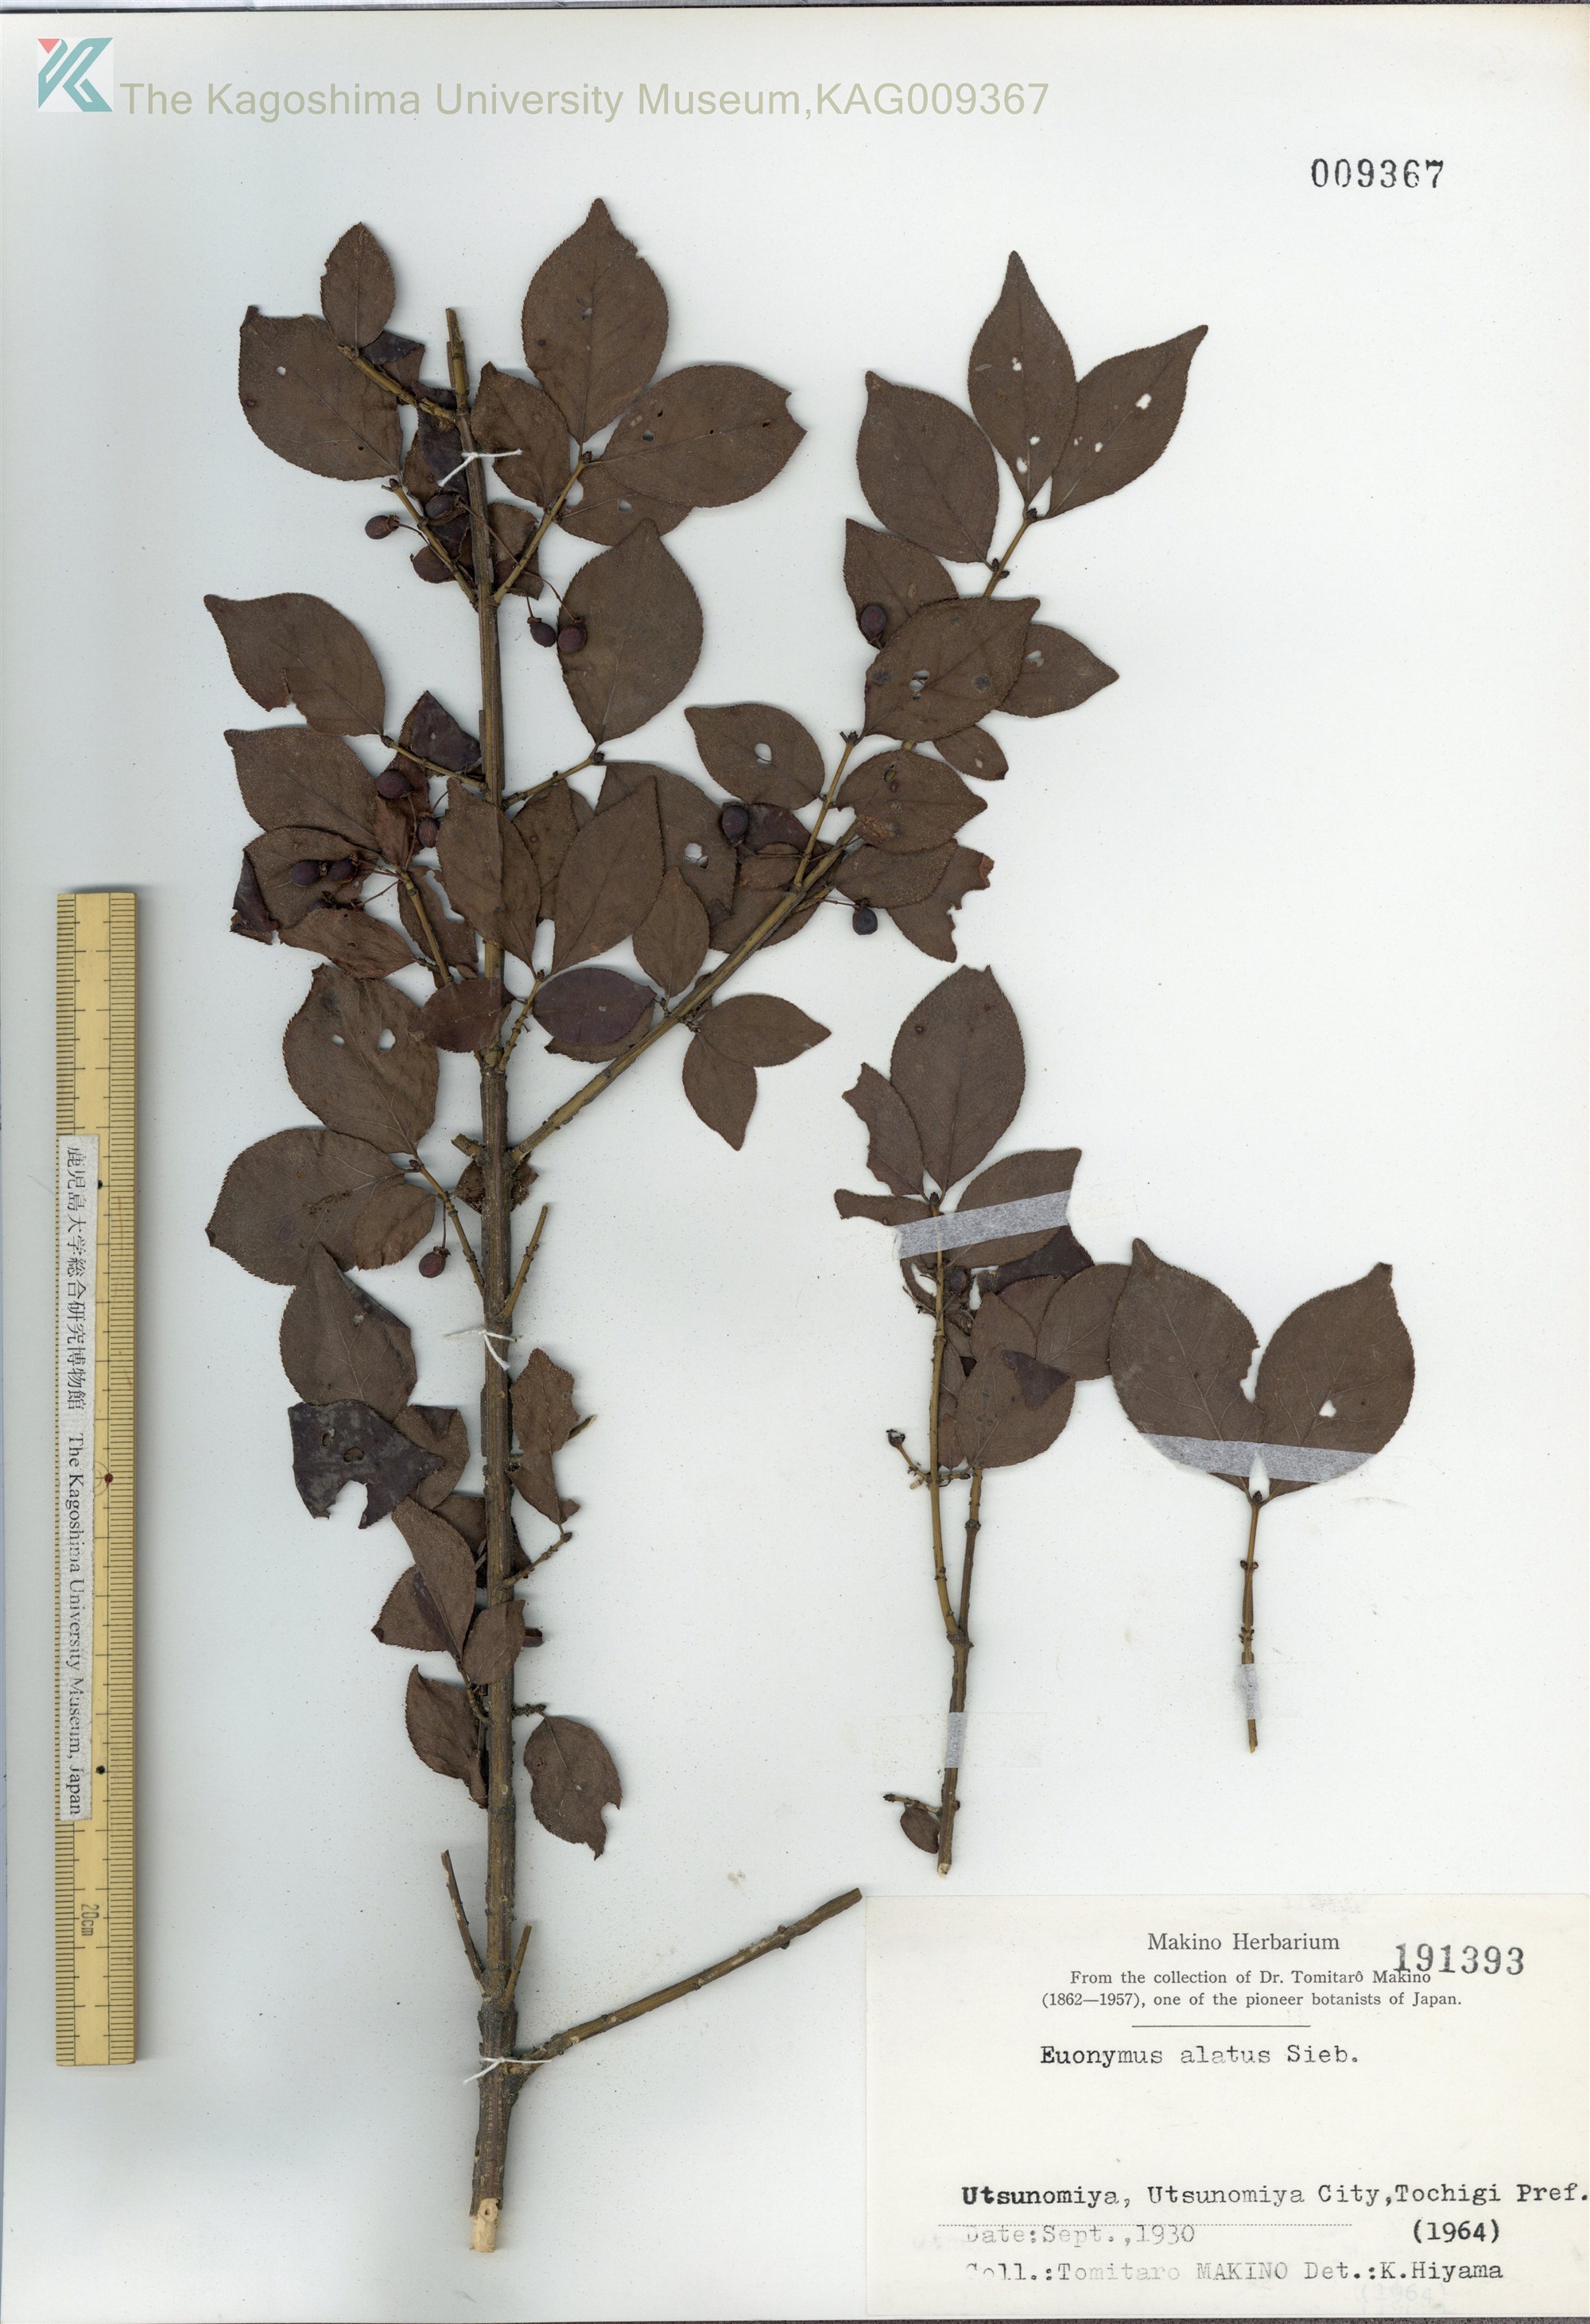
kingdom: Plantae
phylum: Tracheophyta
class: Magnoliopsida
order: Celastrales
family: Celastraceae
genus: Euonymus
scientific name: Euonymus alatus
